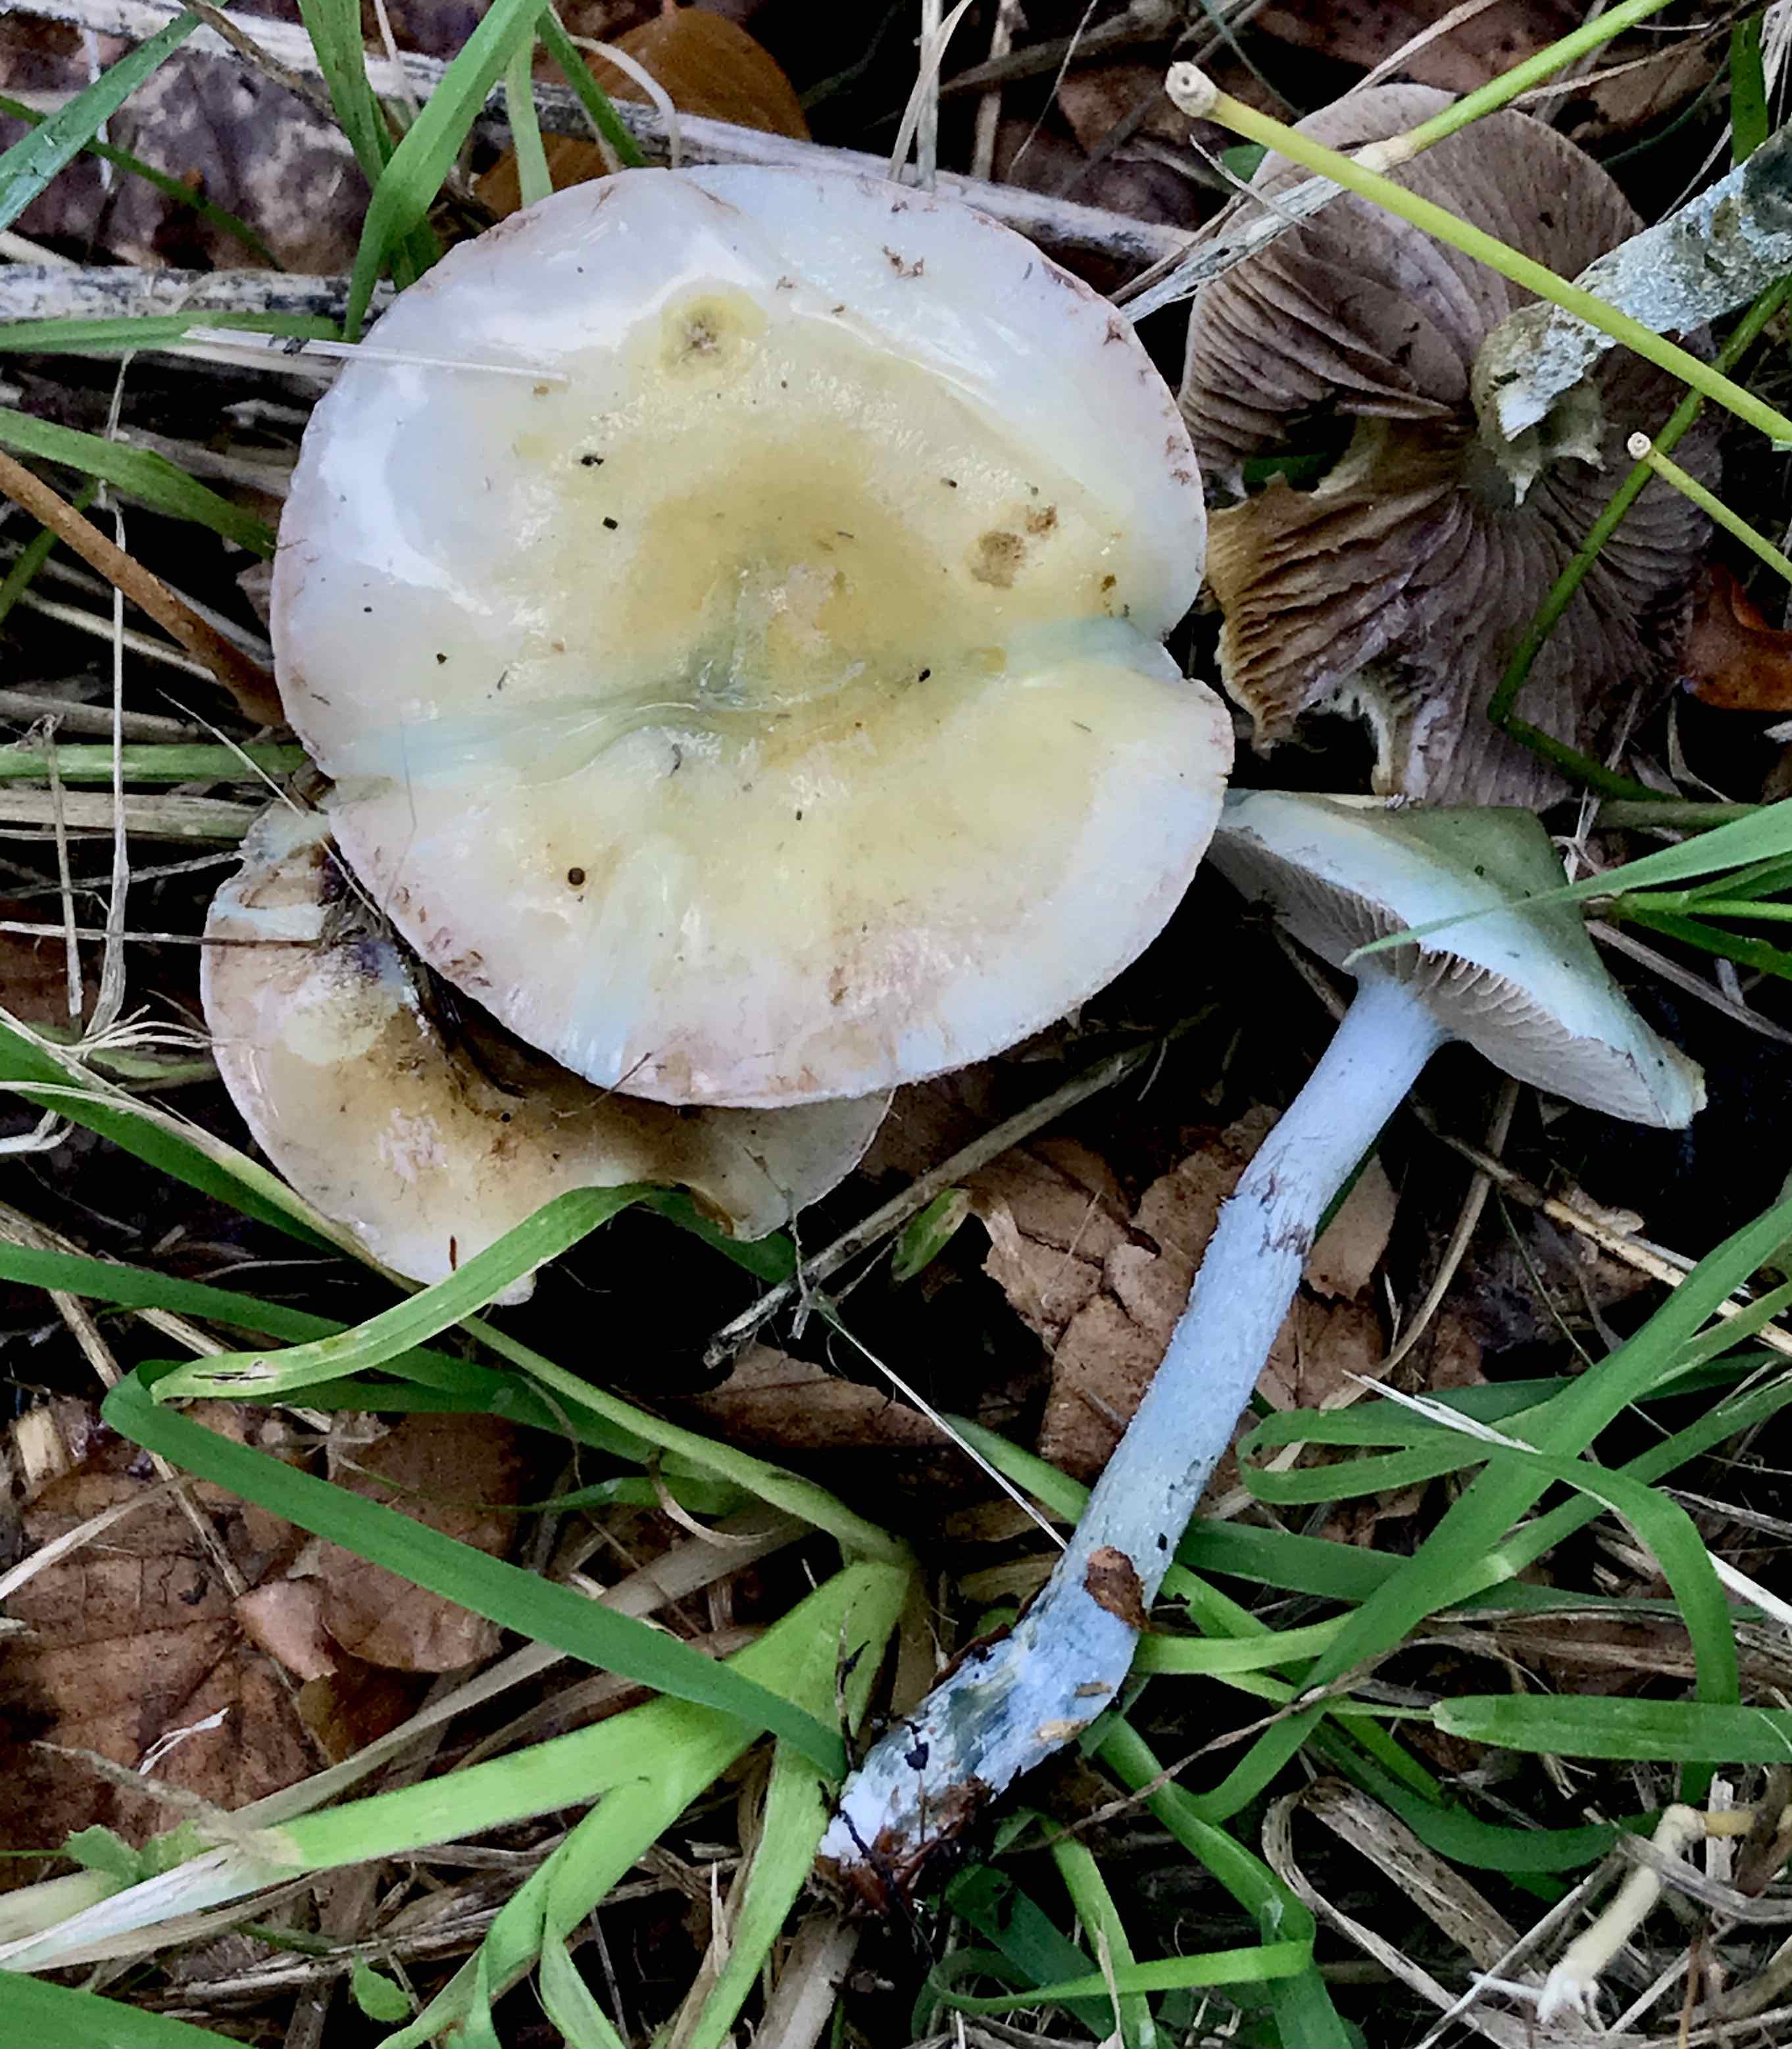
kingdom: Fungi
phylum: Basidiomycota
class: Agaricomycetes
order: Agaricales
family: Strophariaceae
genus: Stropharia
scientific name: Stropharia cyanea
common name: blågrøn bredblad
